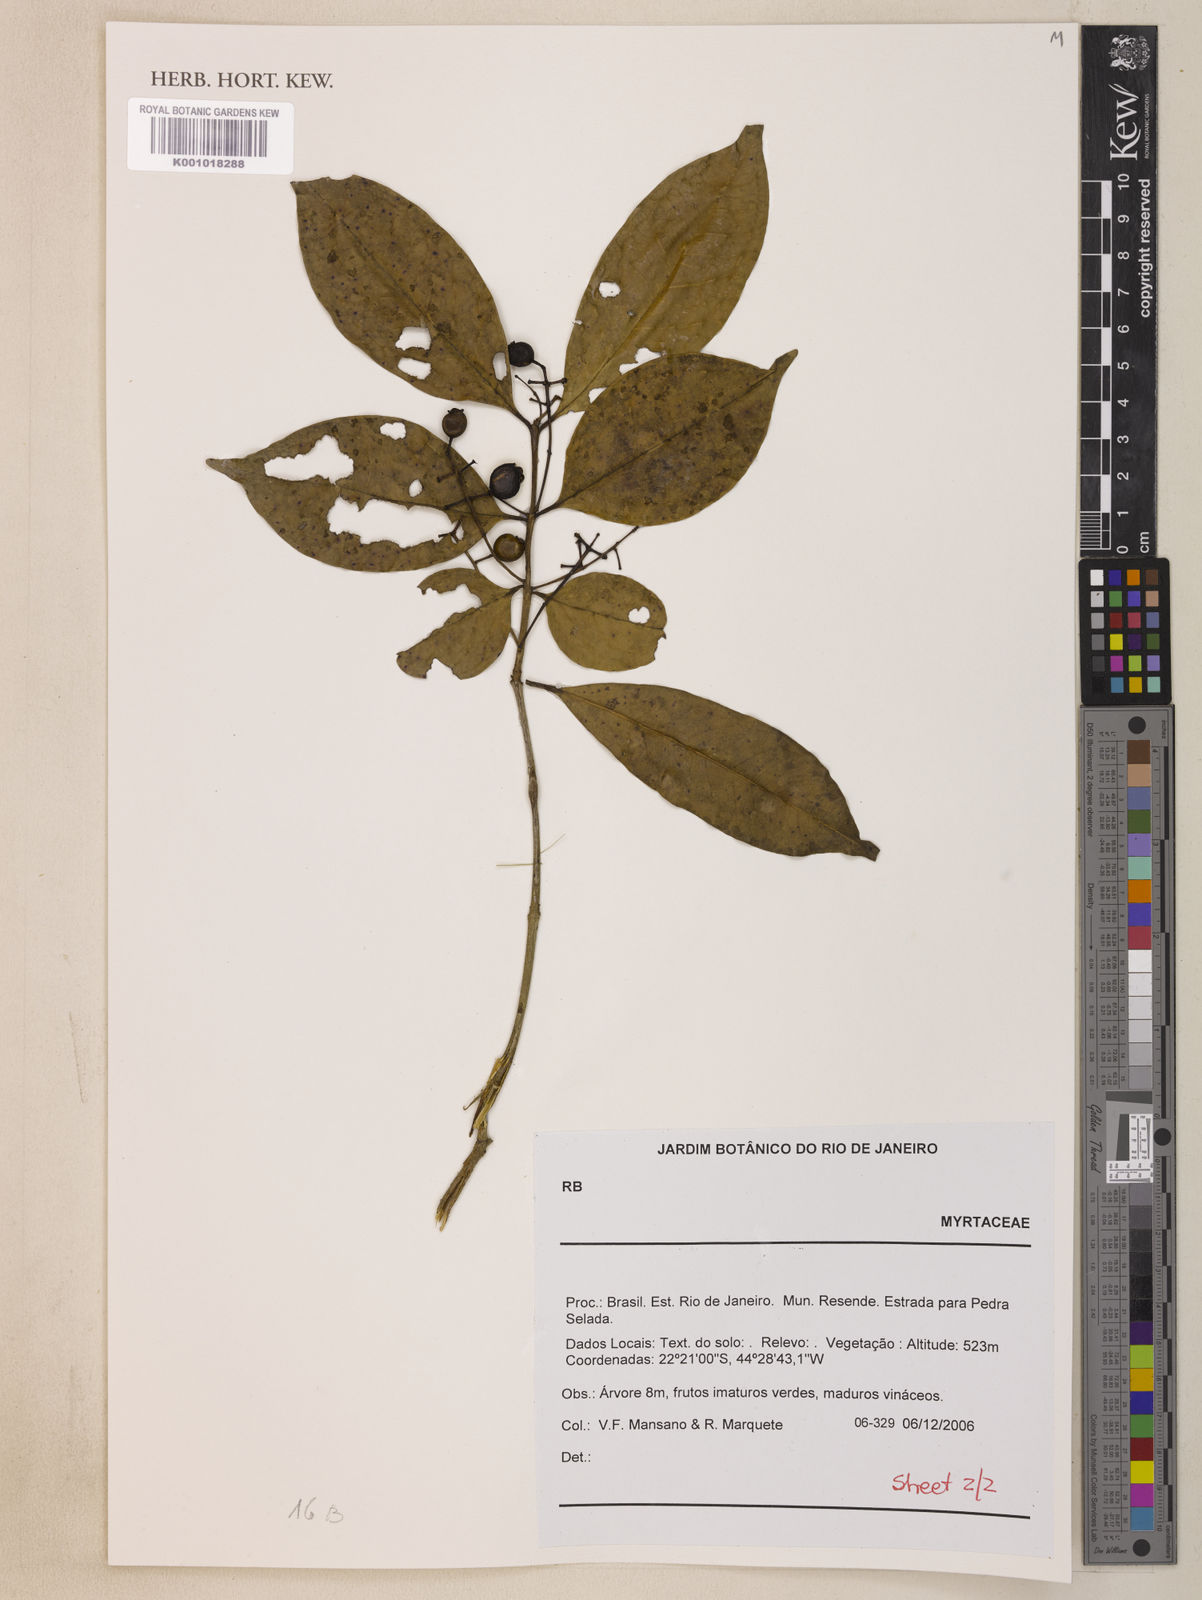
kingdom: Plantae
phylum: Tracheophyta
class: Magnoliopsida
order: Myrtales
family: Myrtaceae
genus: Eugenia
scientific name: Eugenia florida
